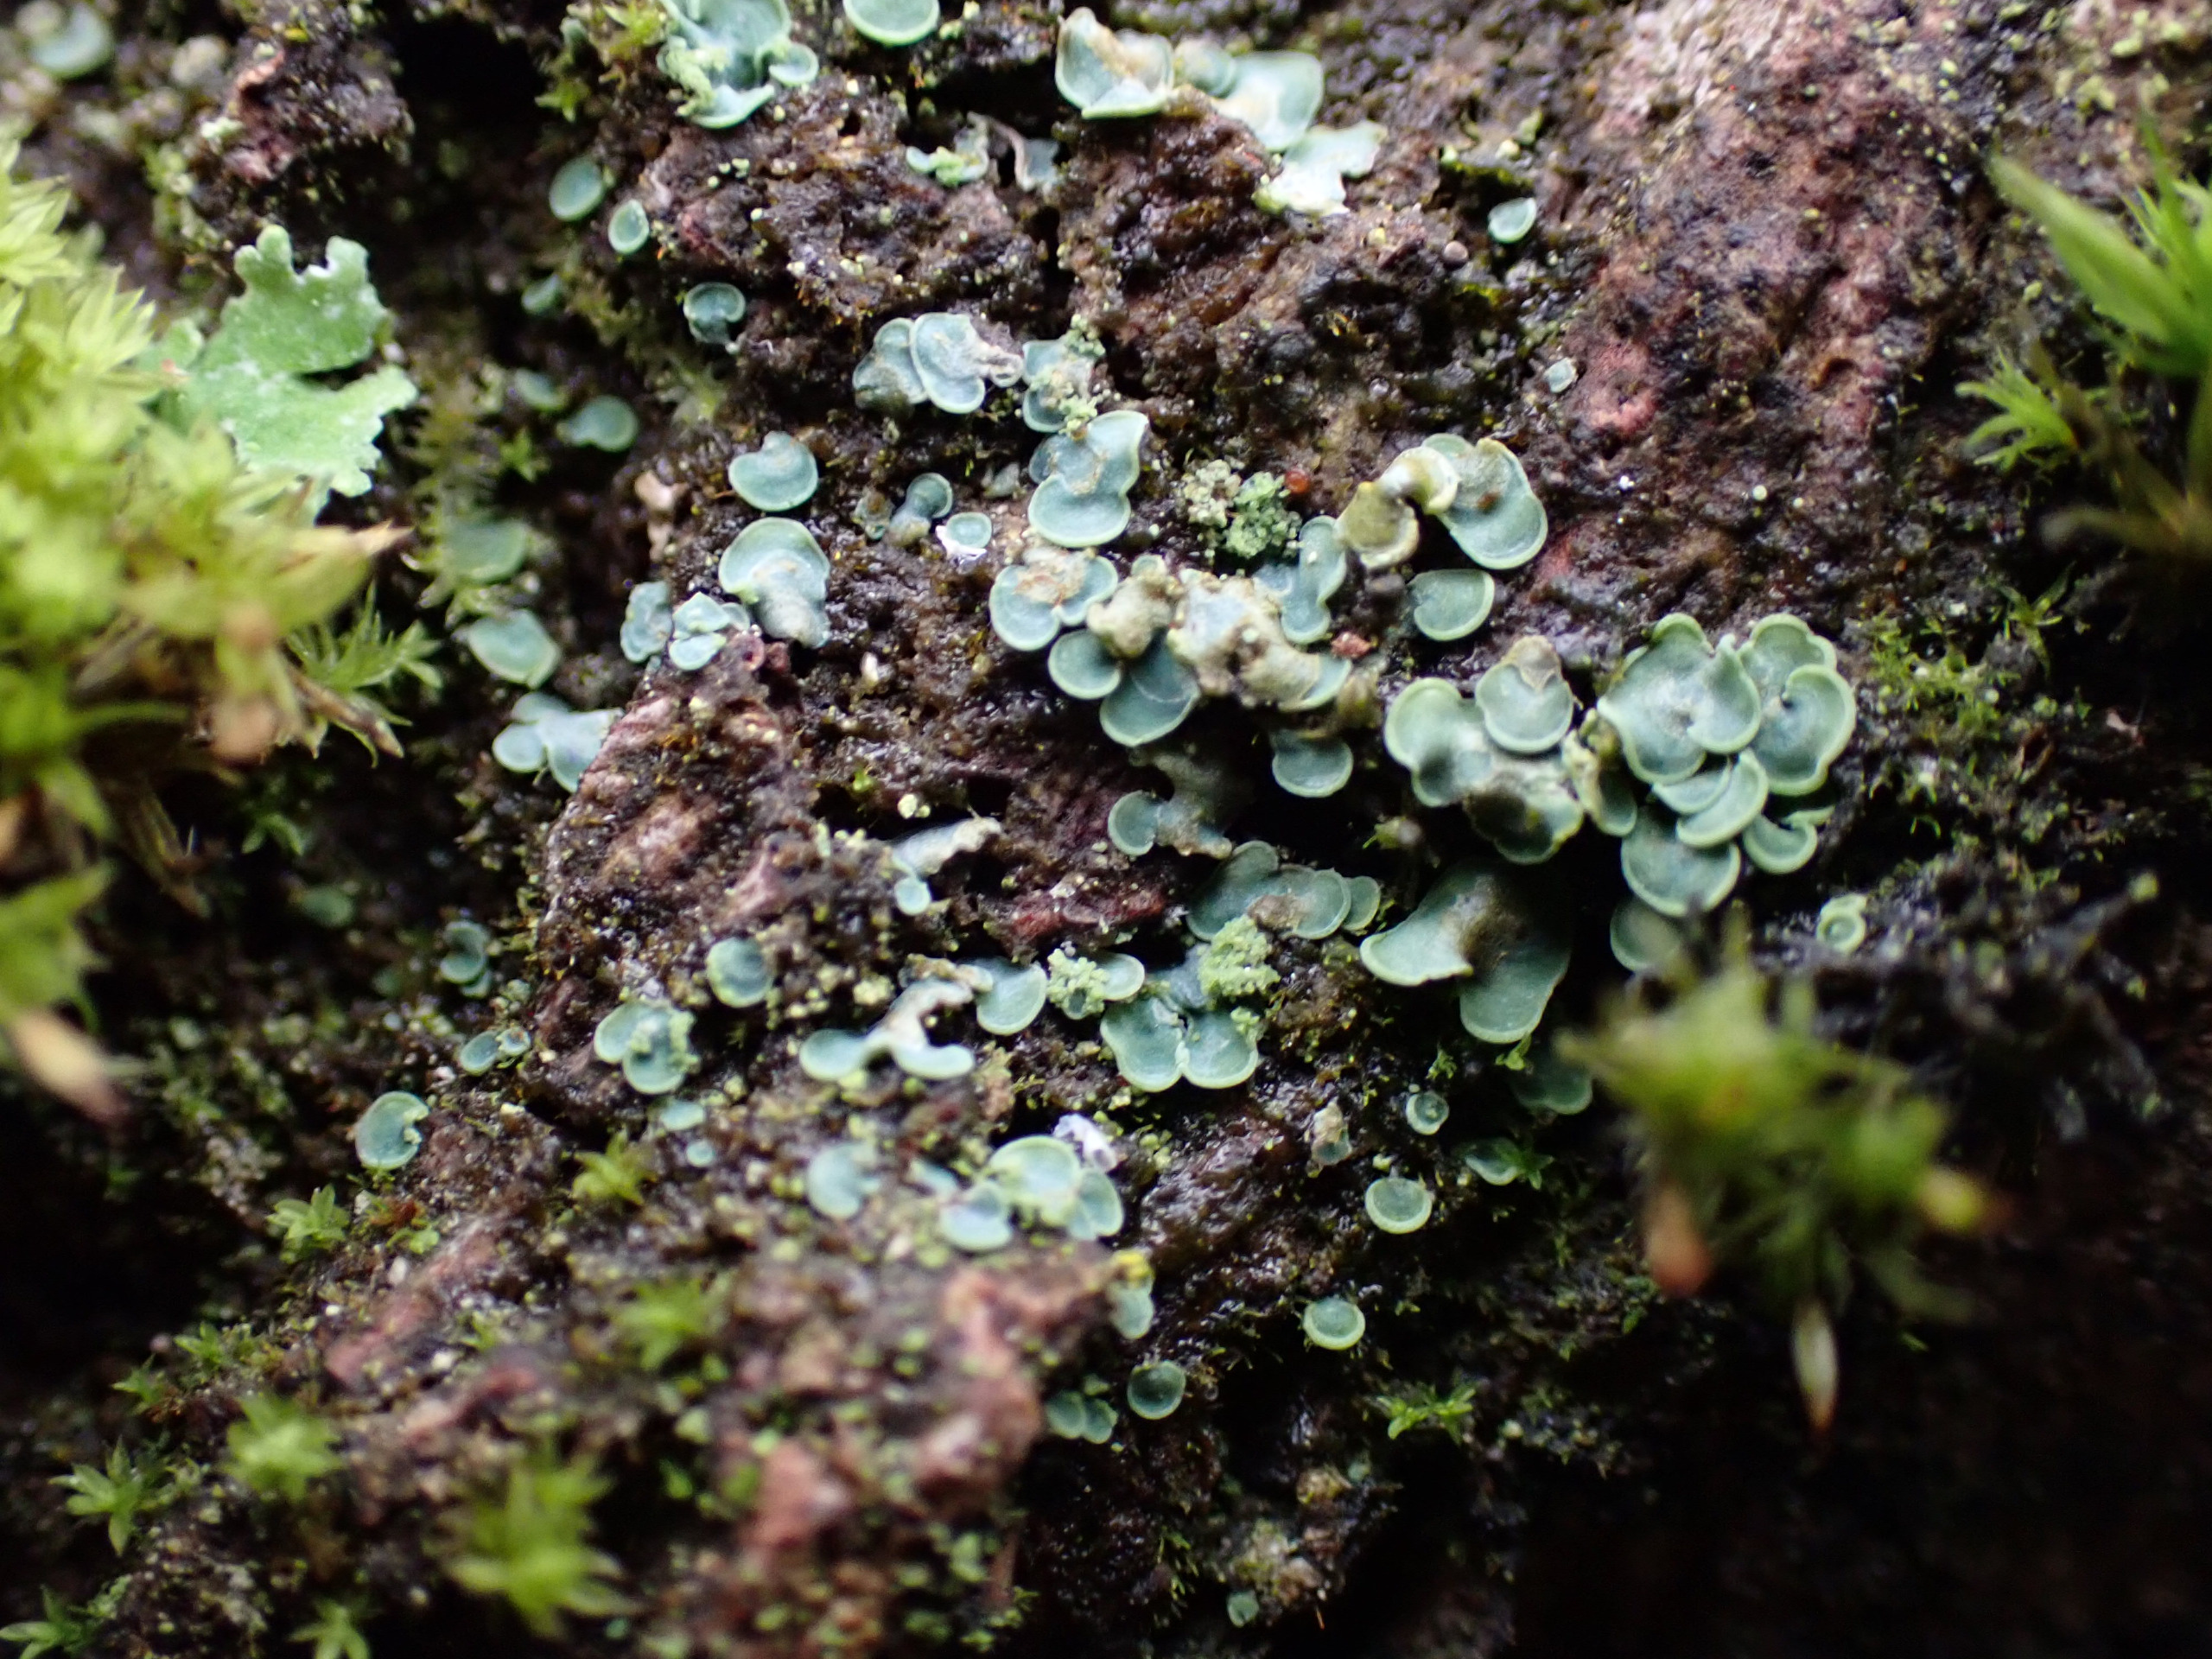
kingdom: Fungi
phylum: Ascomycota
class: Eurotiomycetes
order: Verrucariales
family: Verrucariaceae
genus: Normandina
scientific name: Normandina pulchella
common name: Smuk konfettilav
